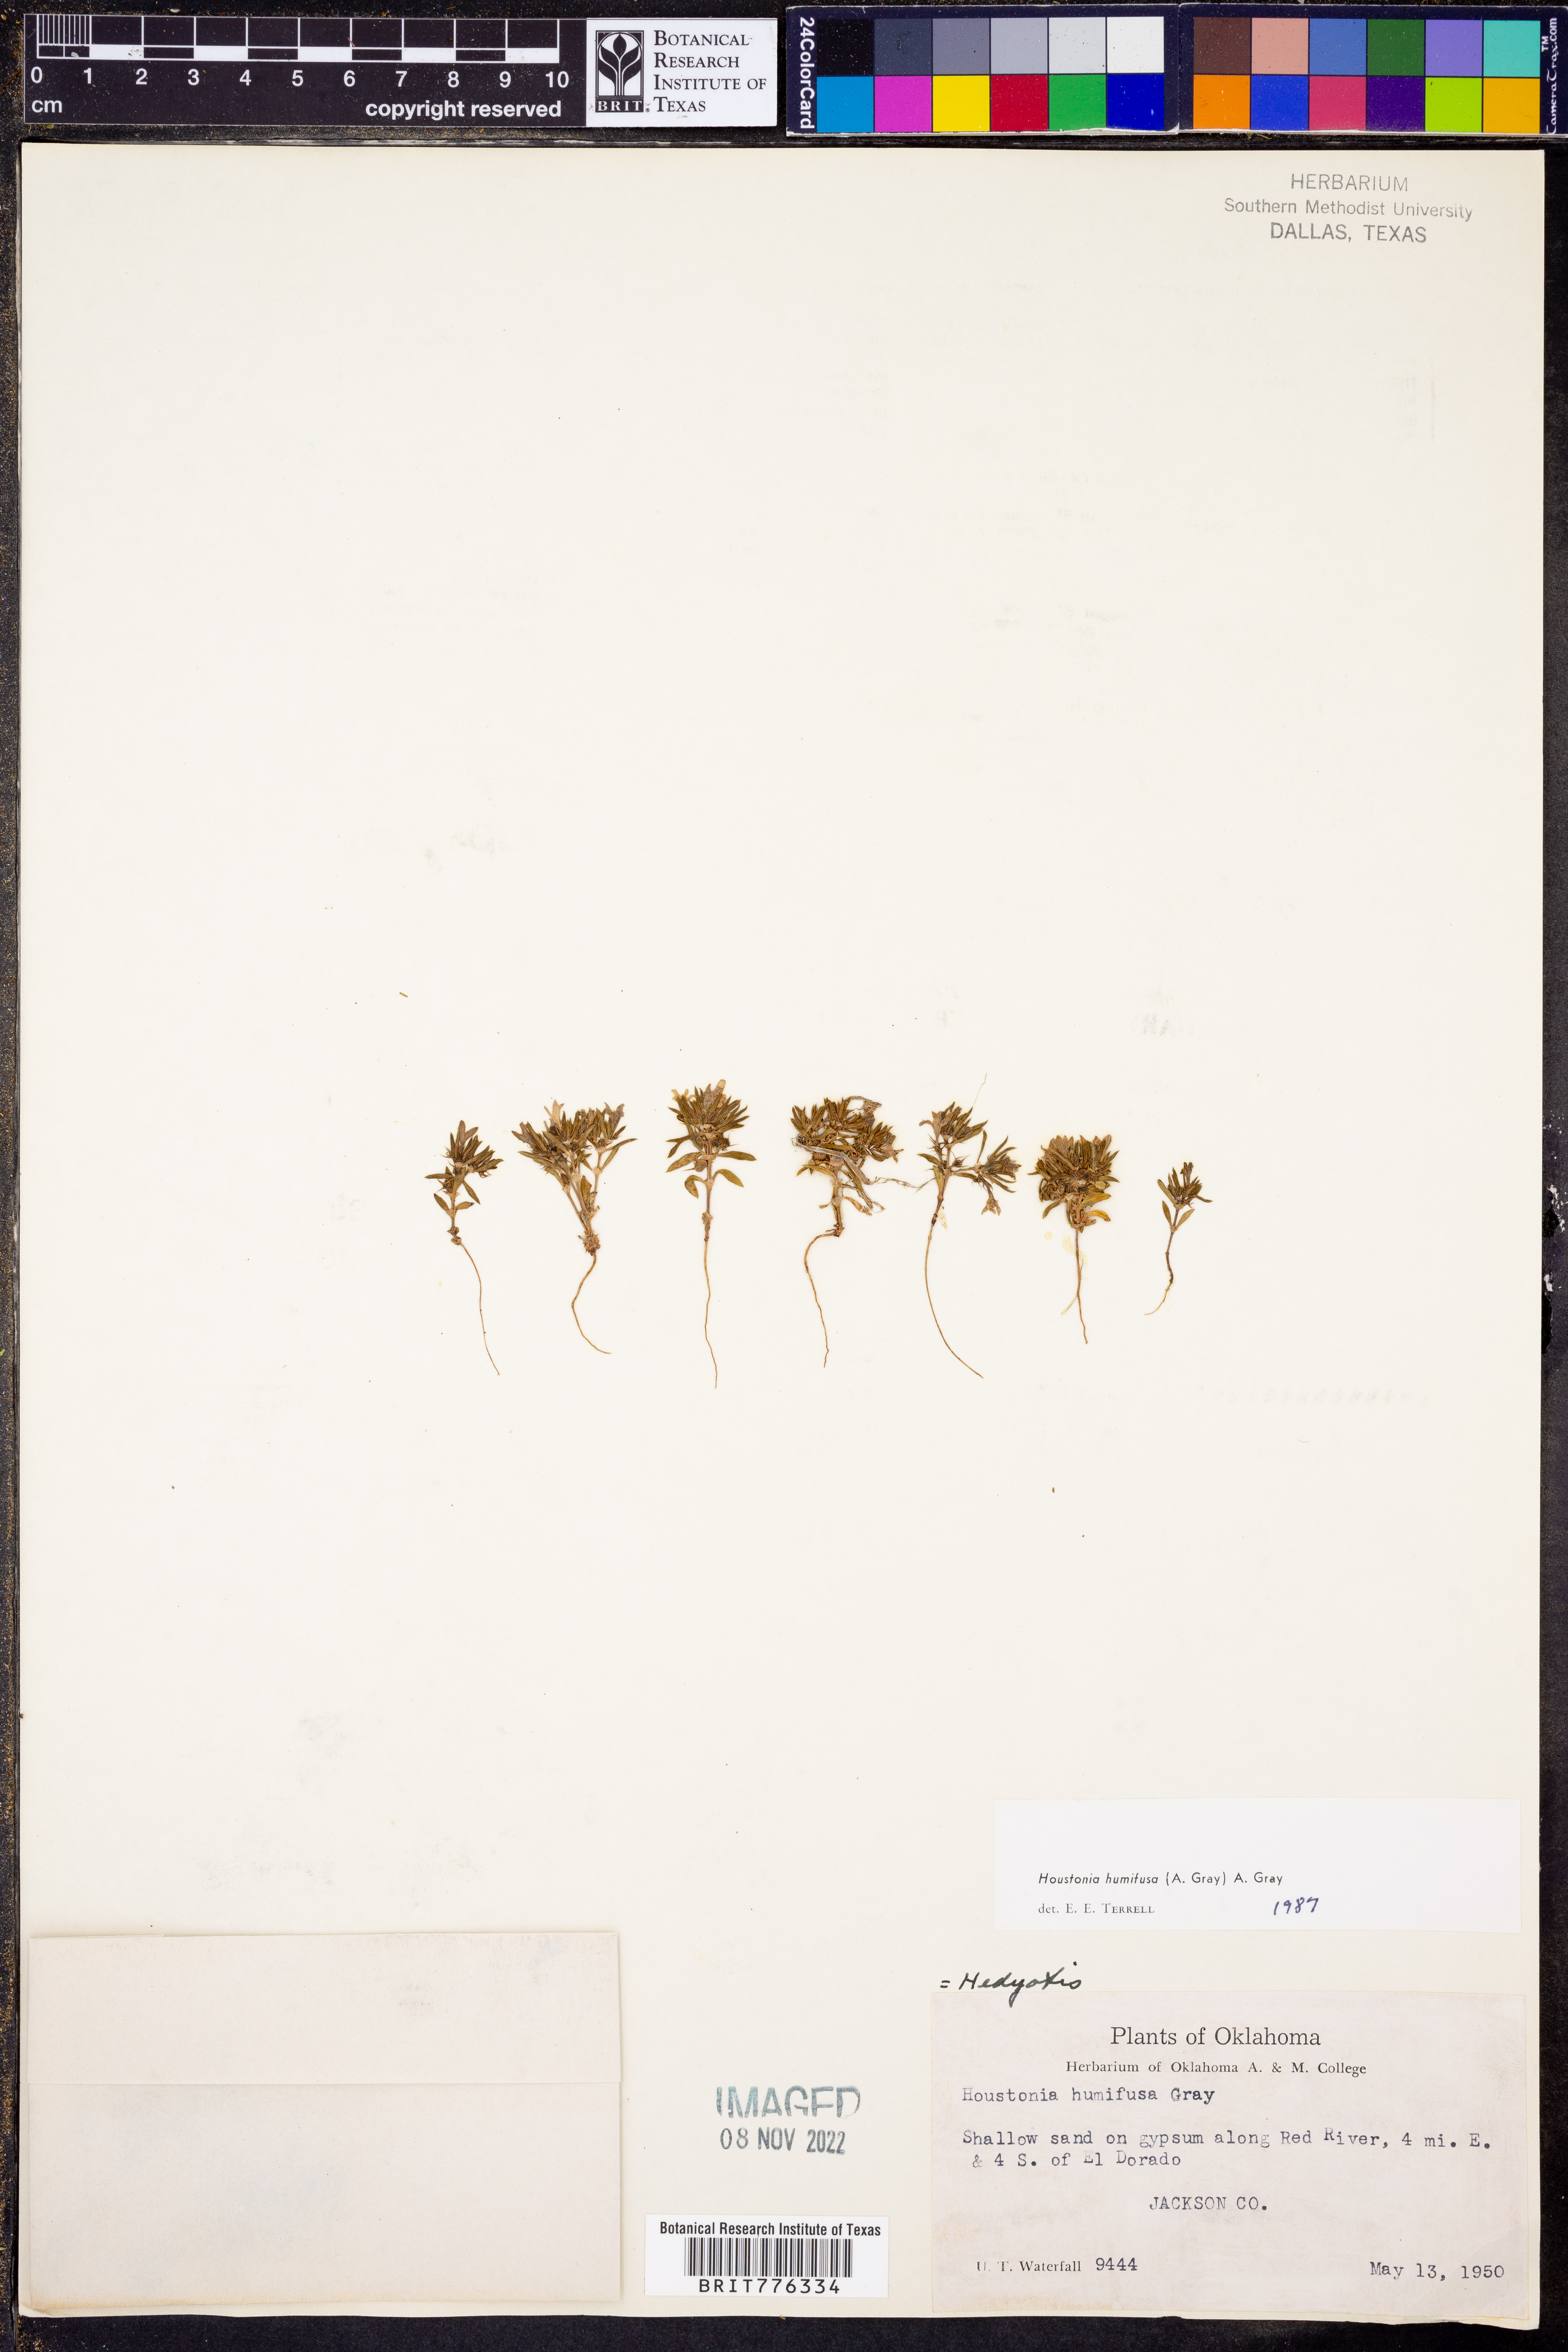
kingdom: Plantae
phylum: Tracheophyta
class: Magnoliopsida
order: Gentianales
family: Rubiaceae
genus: Houstonia
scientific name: Houstonia humifusa
